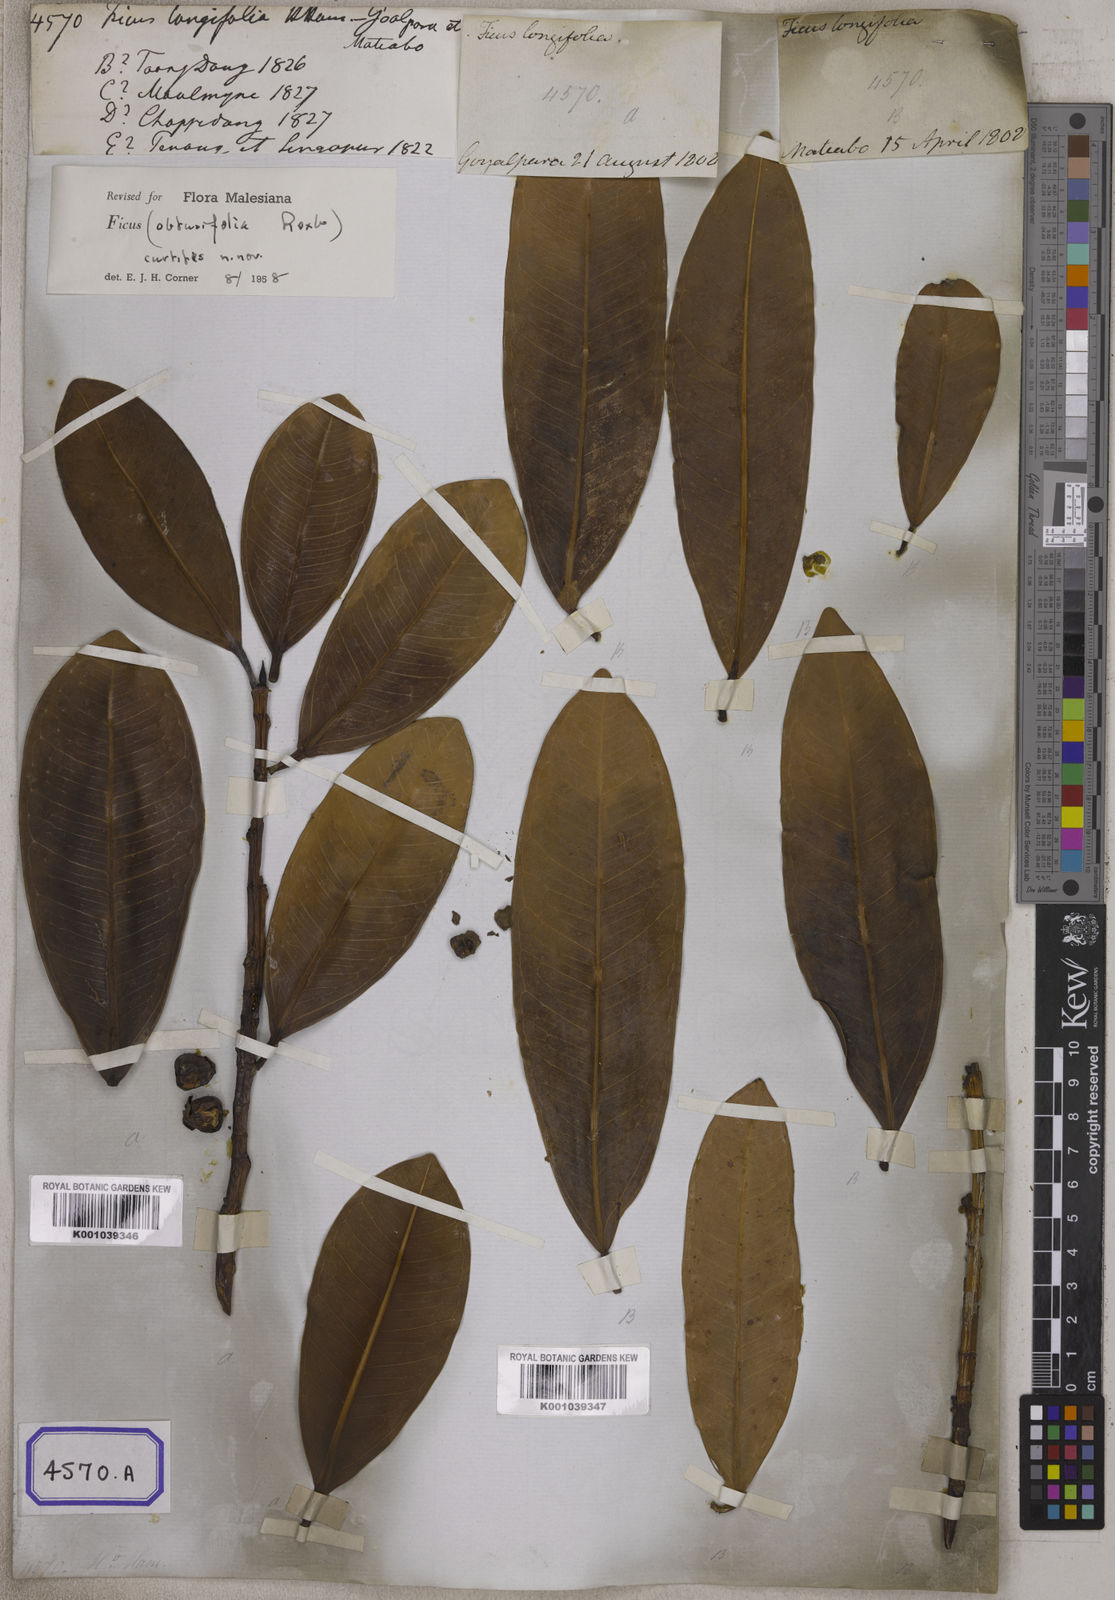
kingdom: Plantae
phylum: Tracheophyta
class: Magnoliopsida
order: Rosales
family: Moraceae
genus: Ficus
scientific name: Ficus
